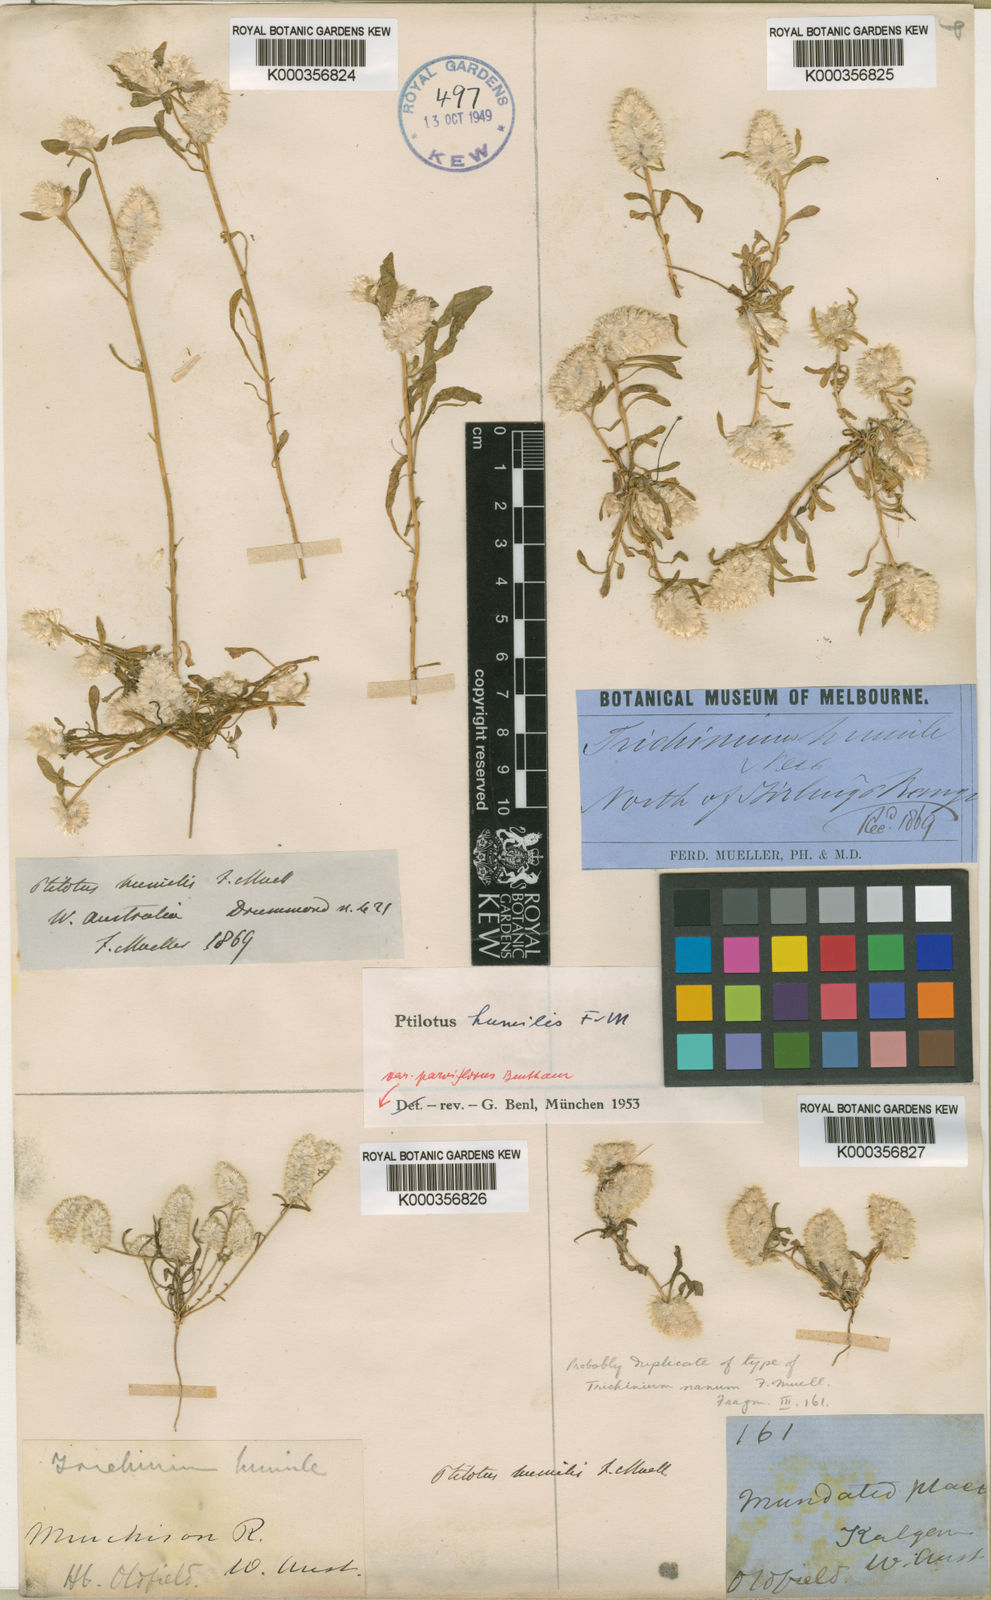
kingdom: Plantae
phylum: Tracheophyta
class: Magnoliopsida
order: Caryophyllales
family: Amaranthaceae
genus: Ptilotus
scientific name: Ptilotus humilis
